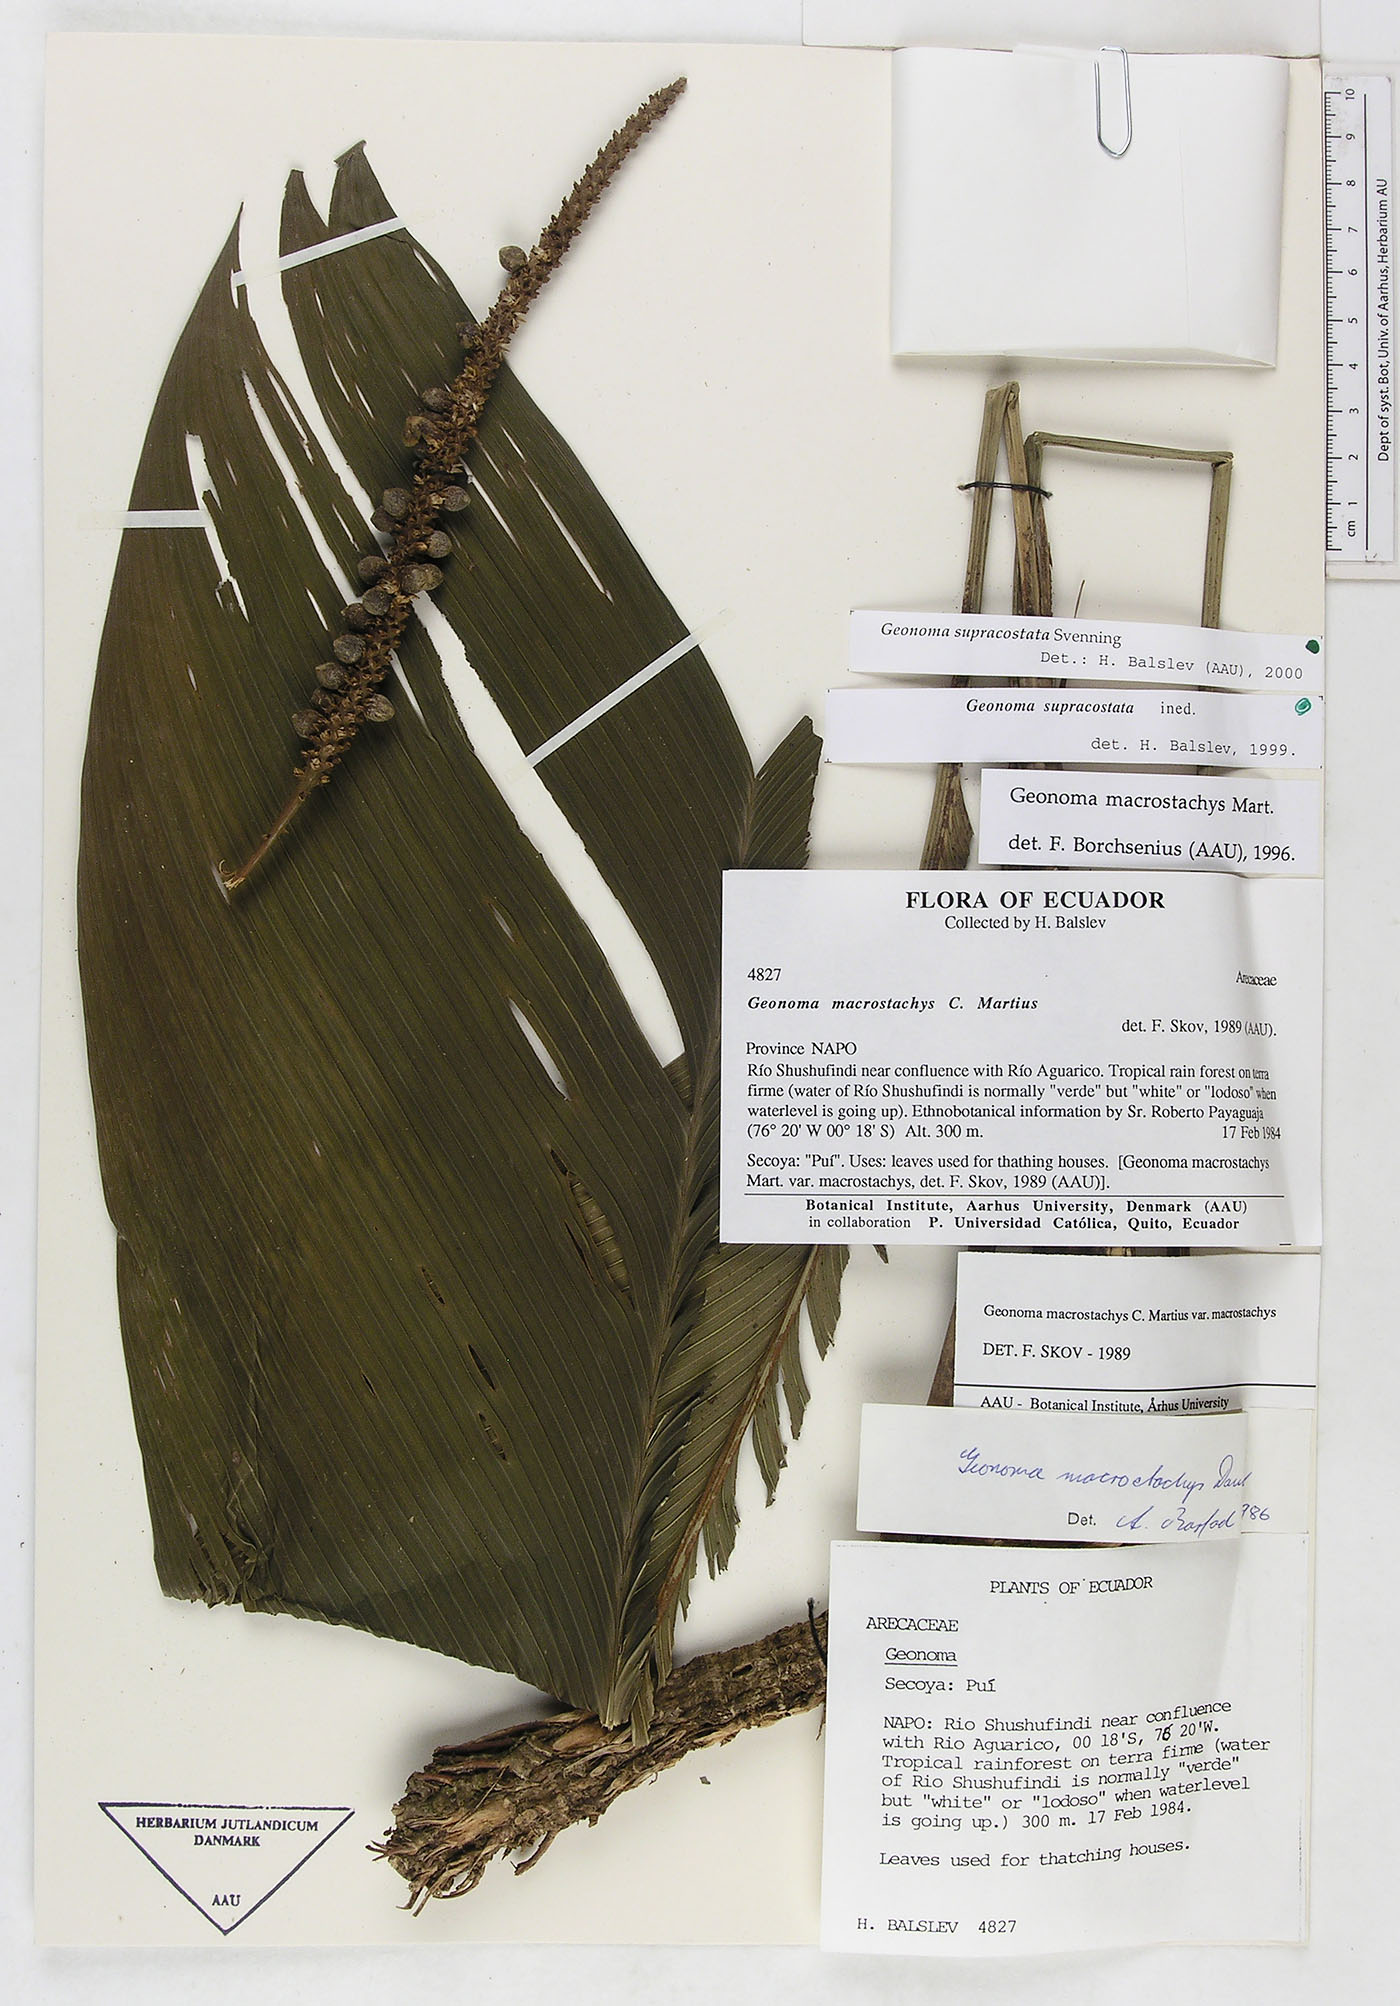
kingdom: Plantae
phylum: Tracheophyta
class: Liliopsida
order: Arecales
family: Arecaceae
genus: Geonoma
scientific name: Geonoma macrostachys
